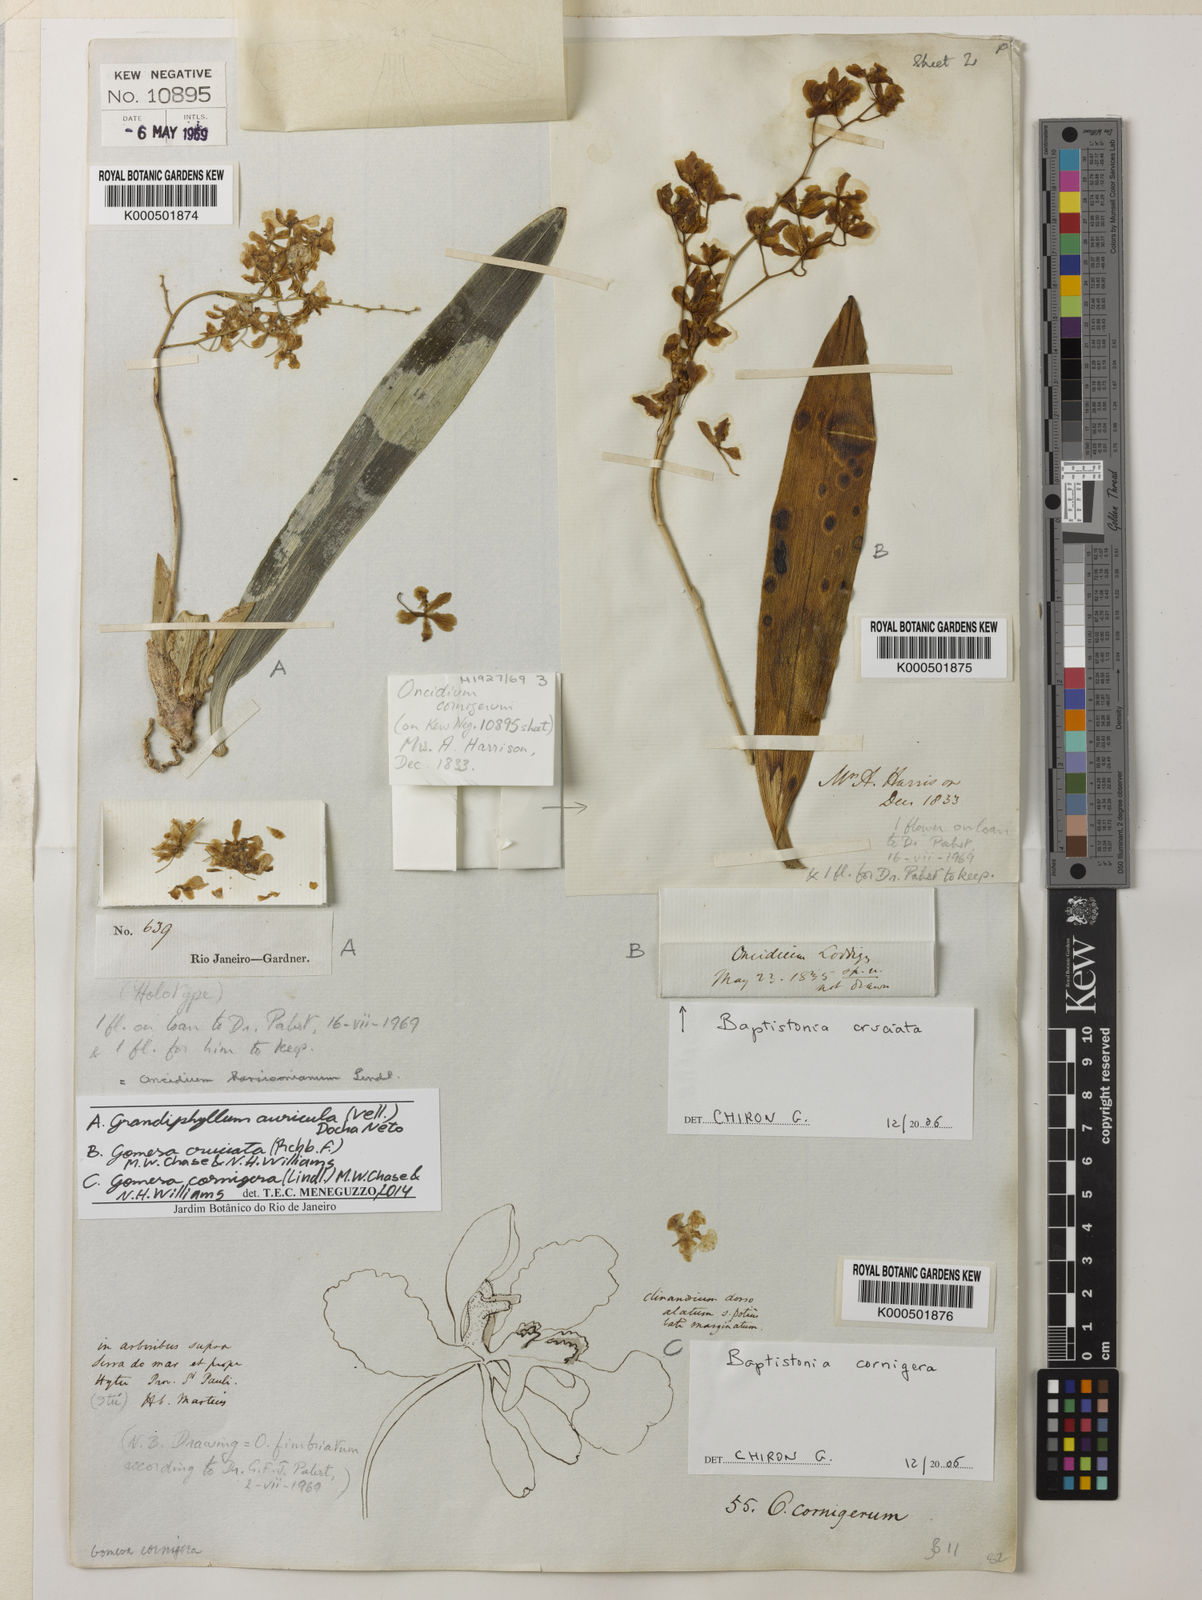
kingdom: Plantae
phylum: Tracheophyta
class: Liliopsida
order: Asparagales
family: Orchidaceae
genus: Grandiphyllum
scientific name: Grandiphyllum auricula
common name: Mule-ear orchid
